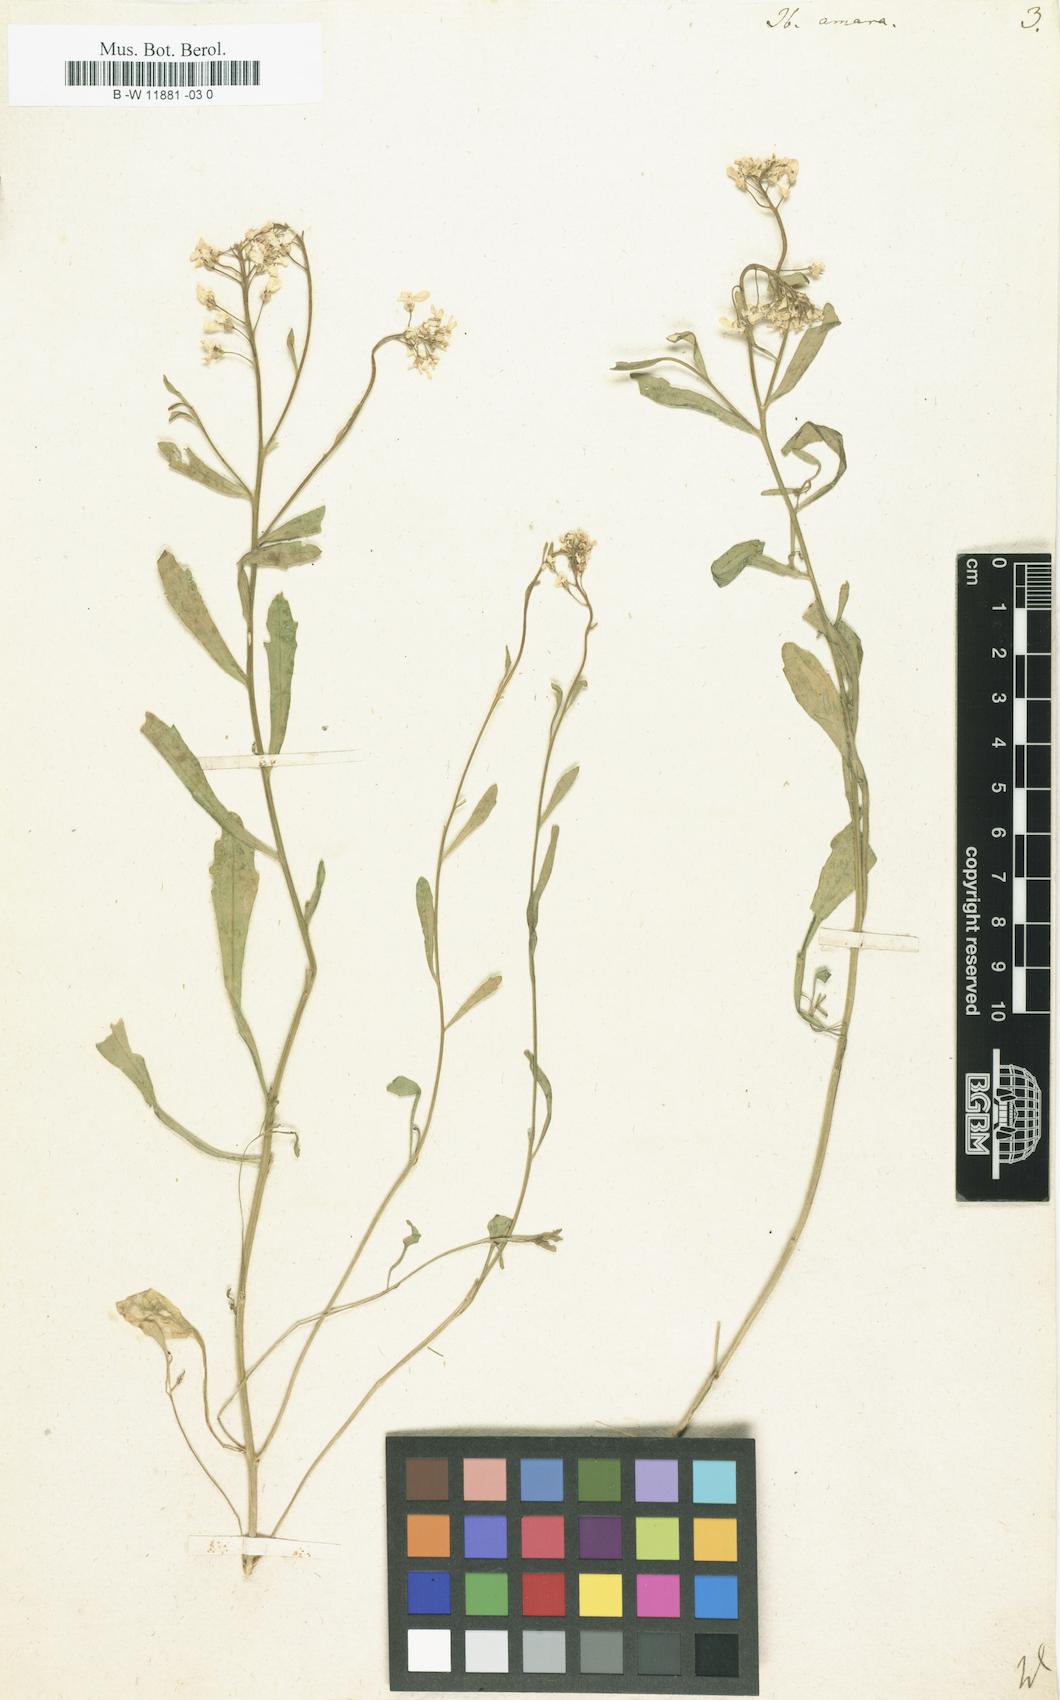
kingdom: Plantae
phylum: Tracheophyta
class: Magnoliopsida
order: Brassicales
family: Brassicaceae
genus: Iberis
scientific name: Iberis amara
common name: Annual candytuft
